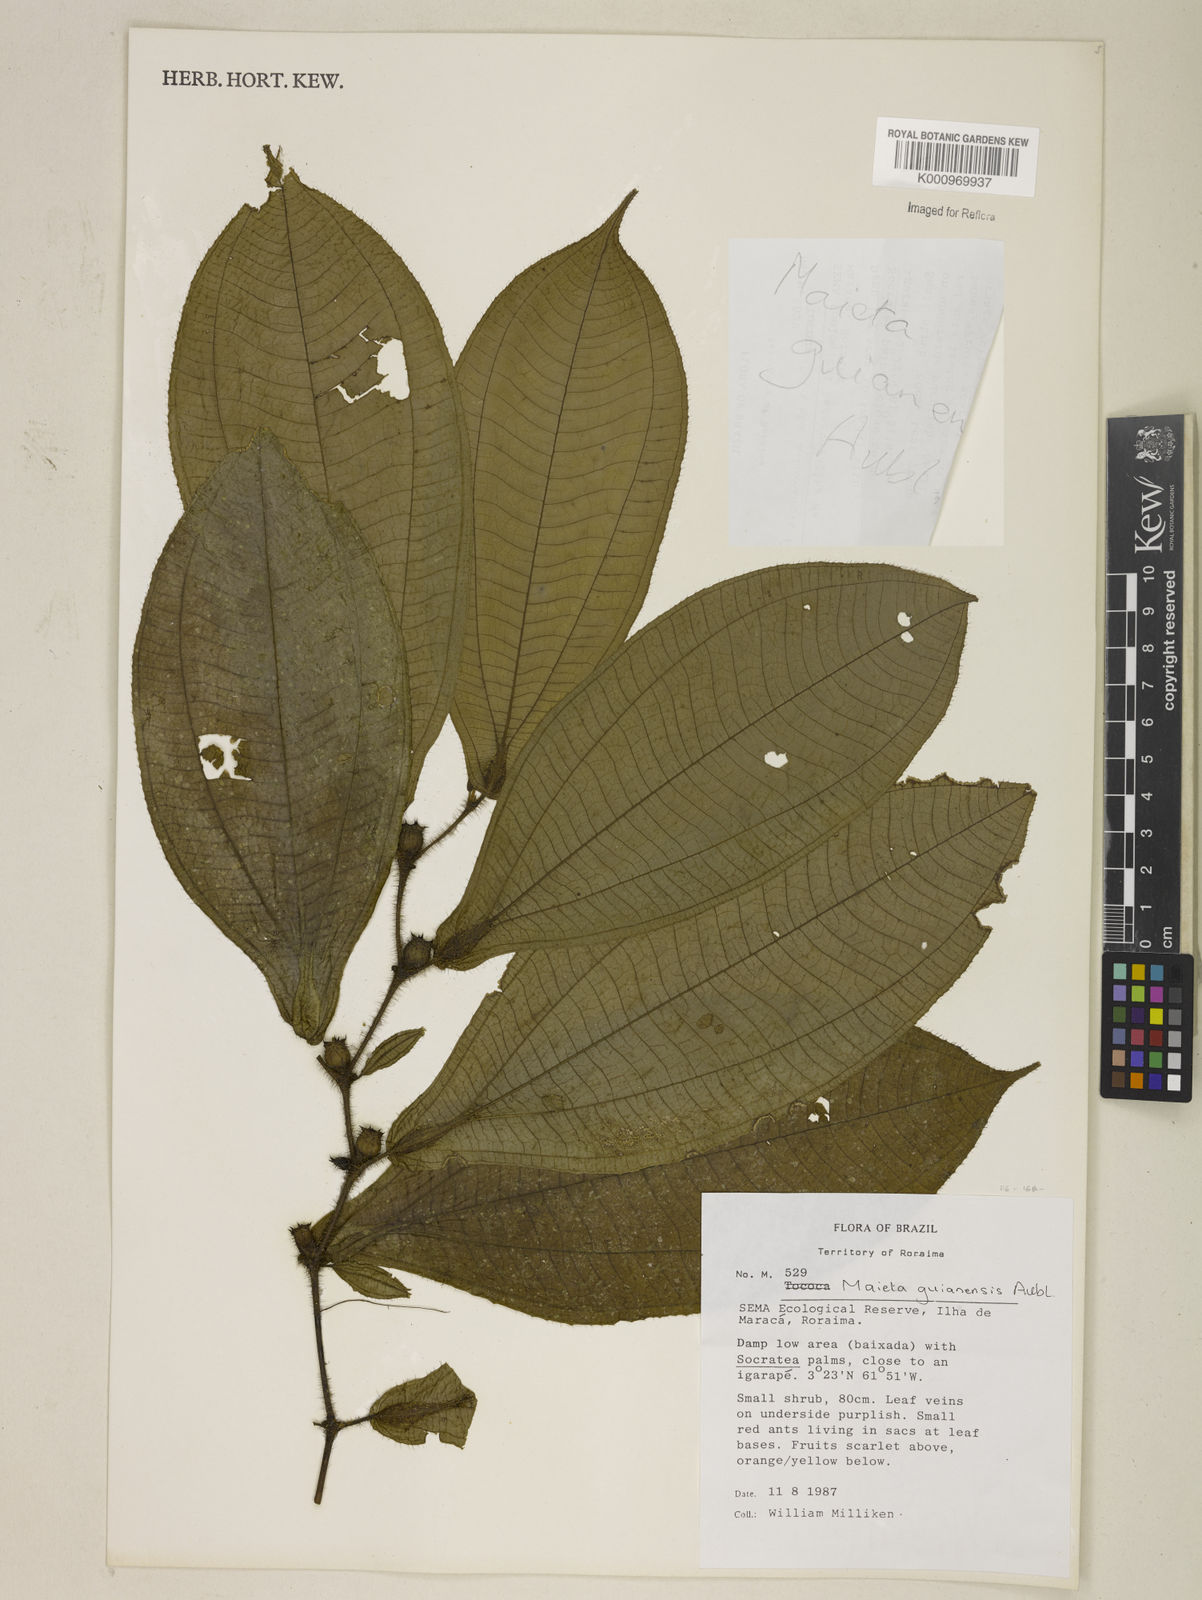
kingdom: Plantae
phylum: Tracheophyta
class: Magnoliopsida
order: Myrtales
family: Melastomataceae
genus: Miconia
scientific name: Miconia mayeta
